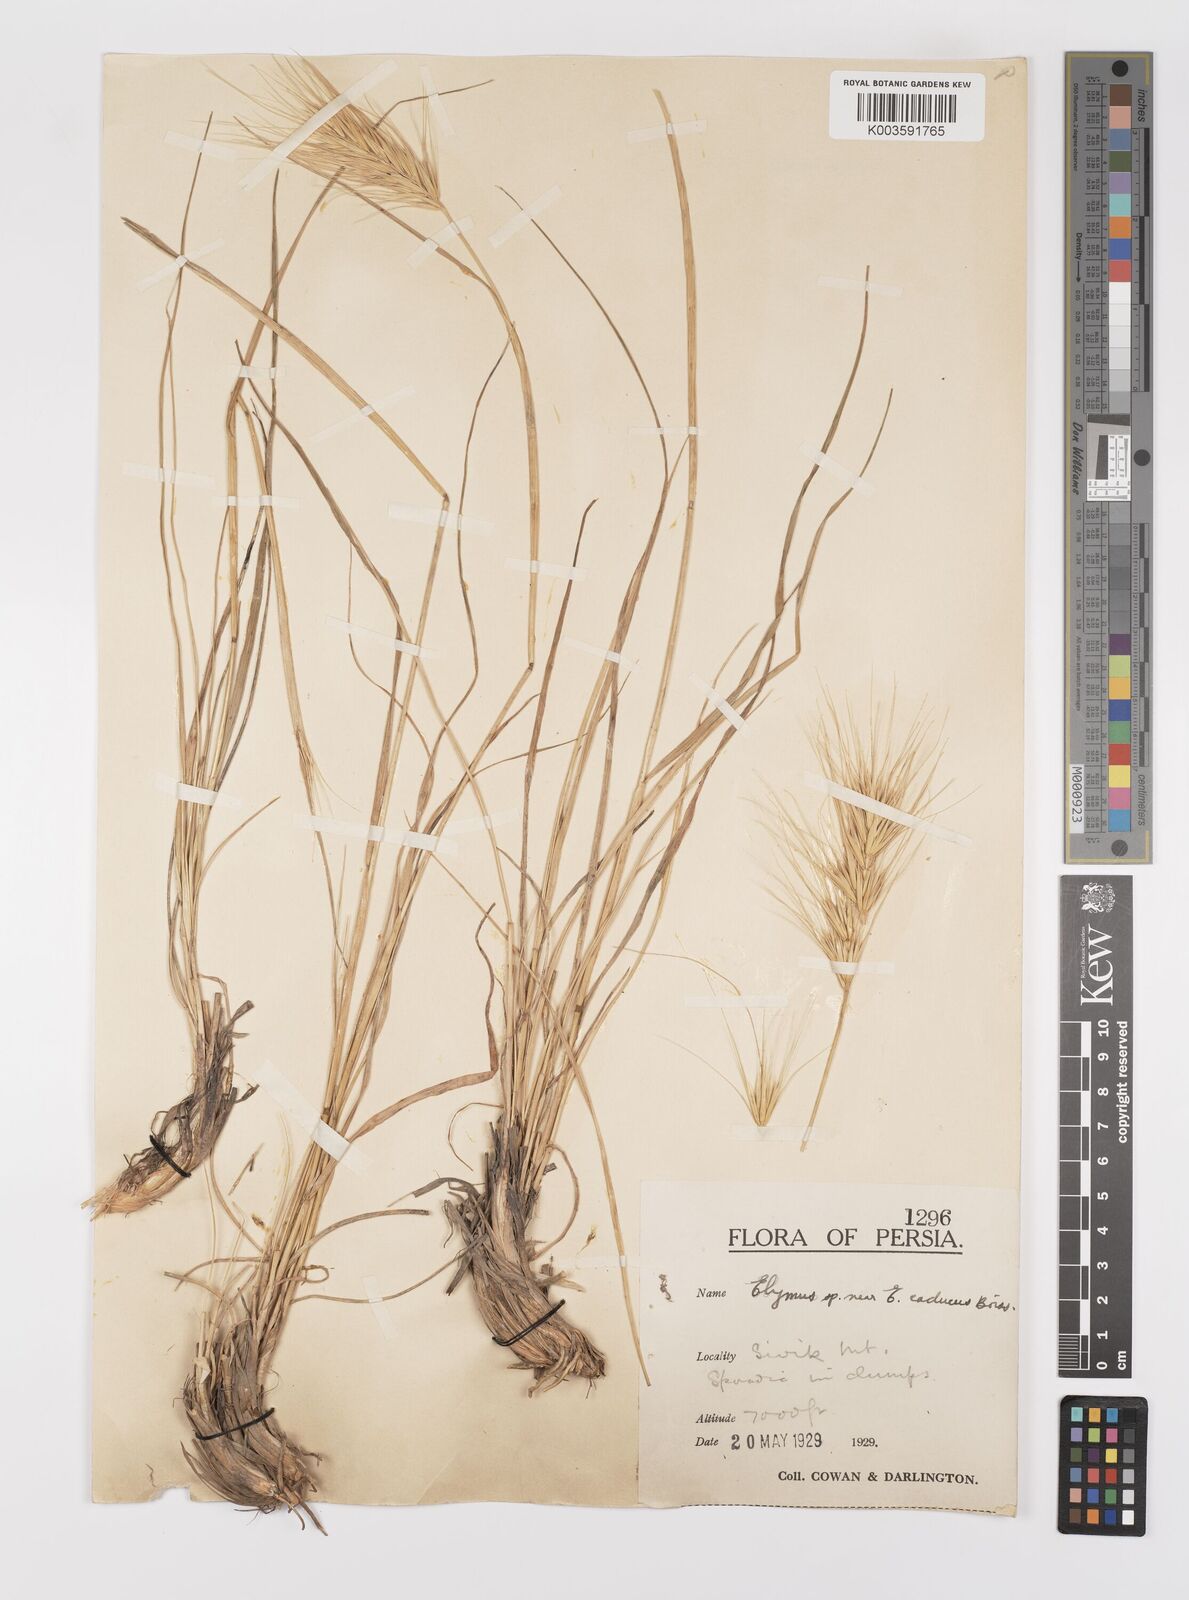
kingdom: Plantae
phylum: Tracheophyta
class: Liliopsida
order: Poales
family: Poaceae
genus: Psathyrostachys
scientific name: Psathyrostachys fragilis
